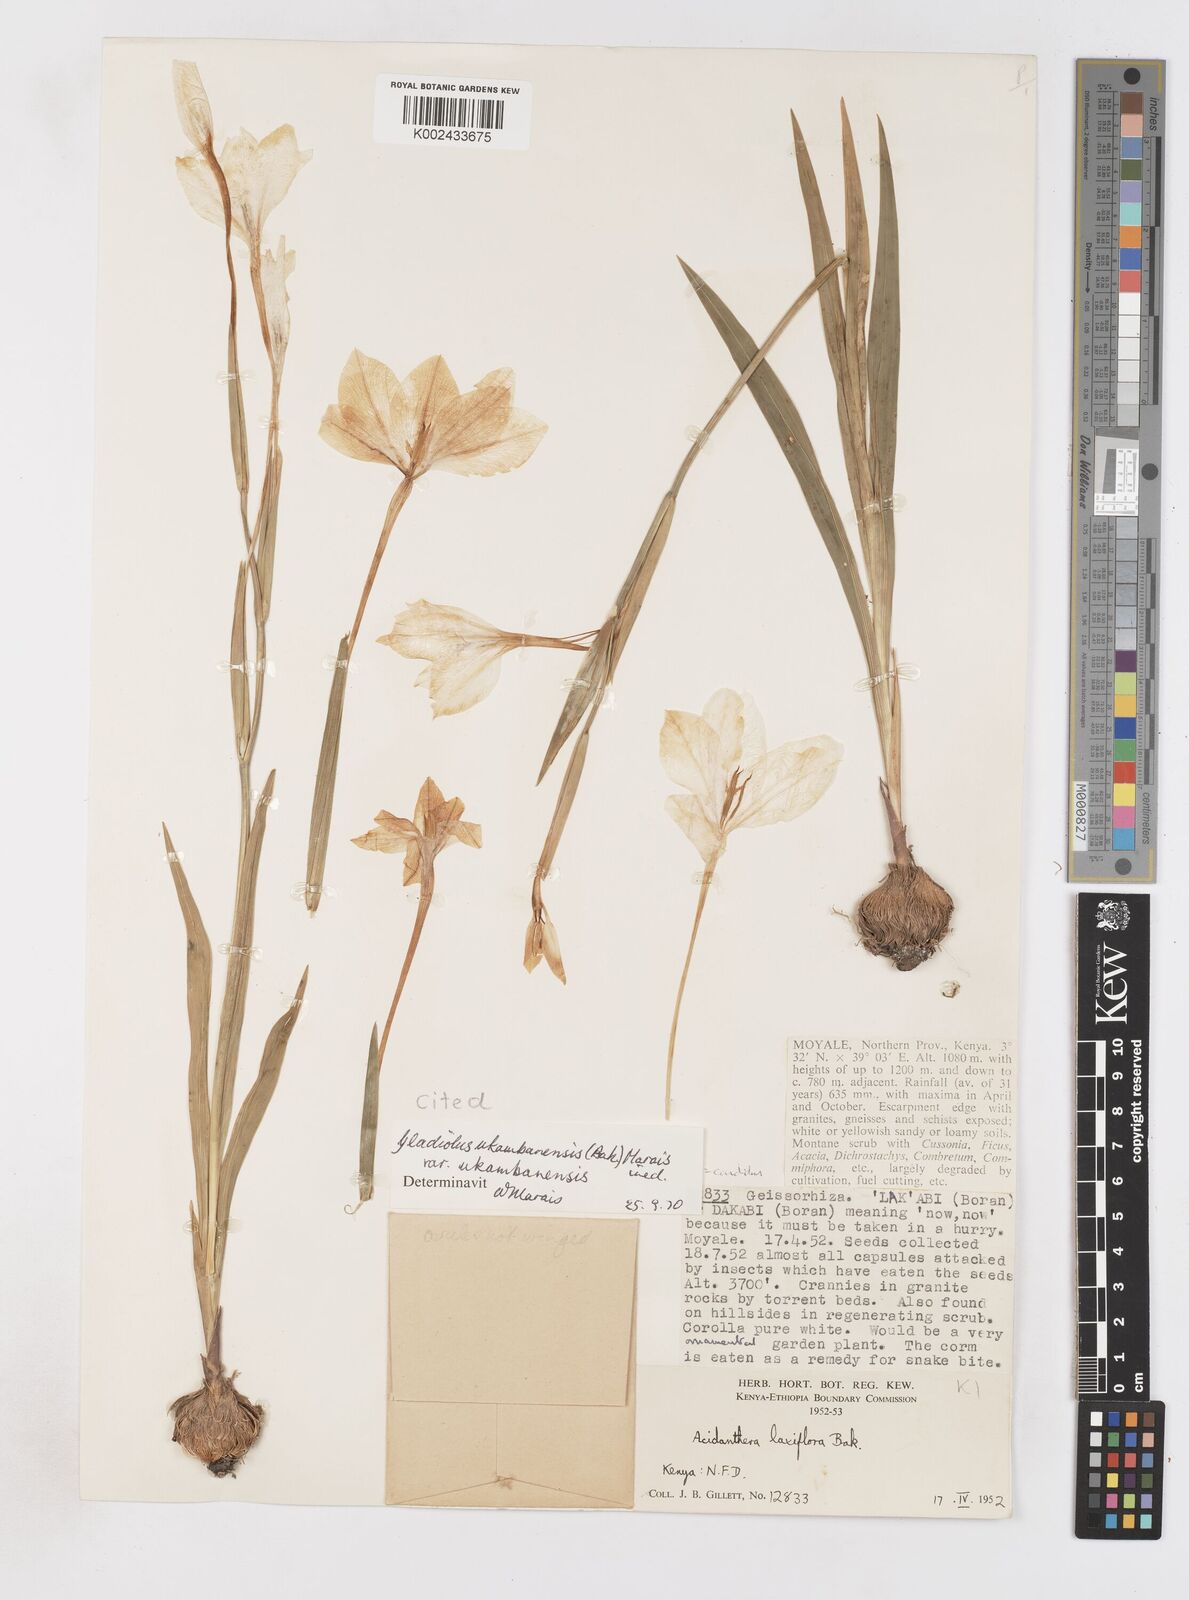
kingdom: Plantae
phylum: Tracheophyta
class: Liliopsida
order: Asparagales
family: Iridaceae
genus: Gladiolus
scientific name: Gladiolus
